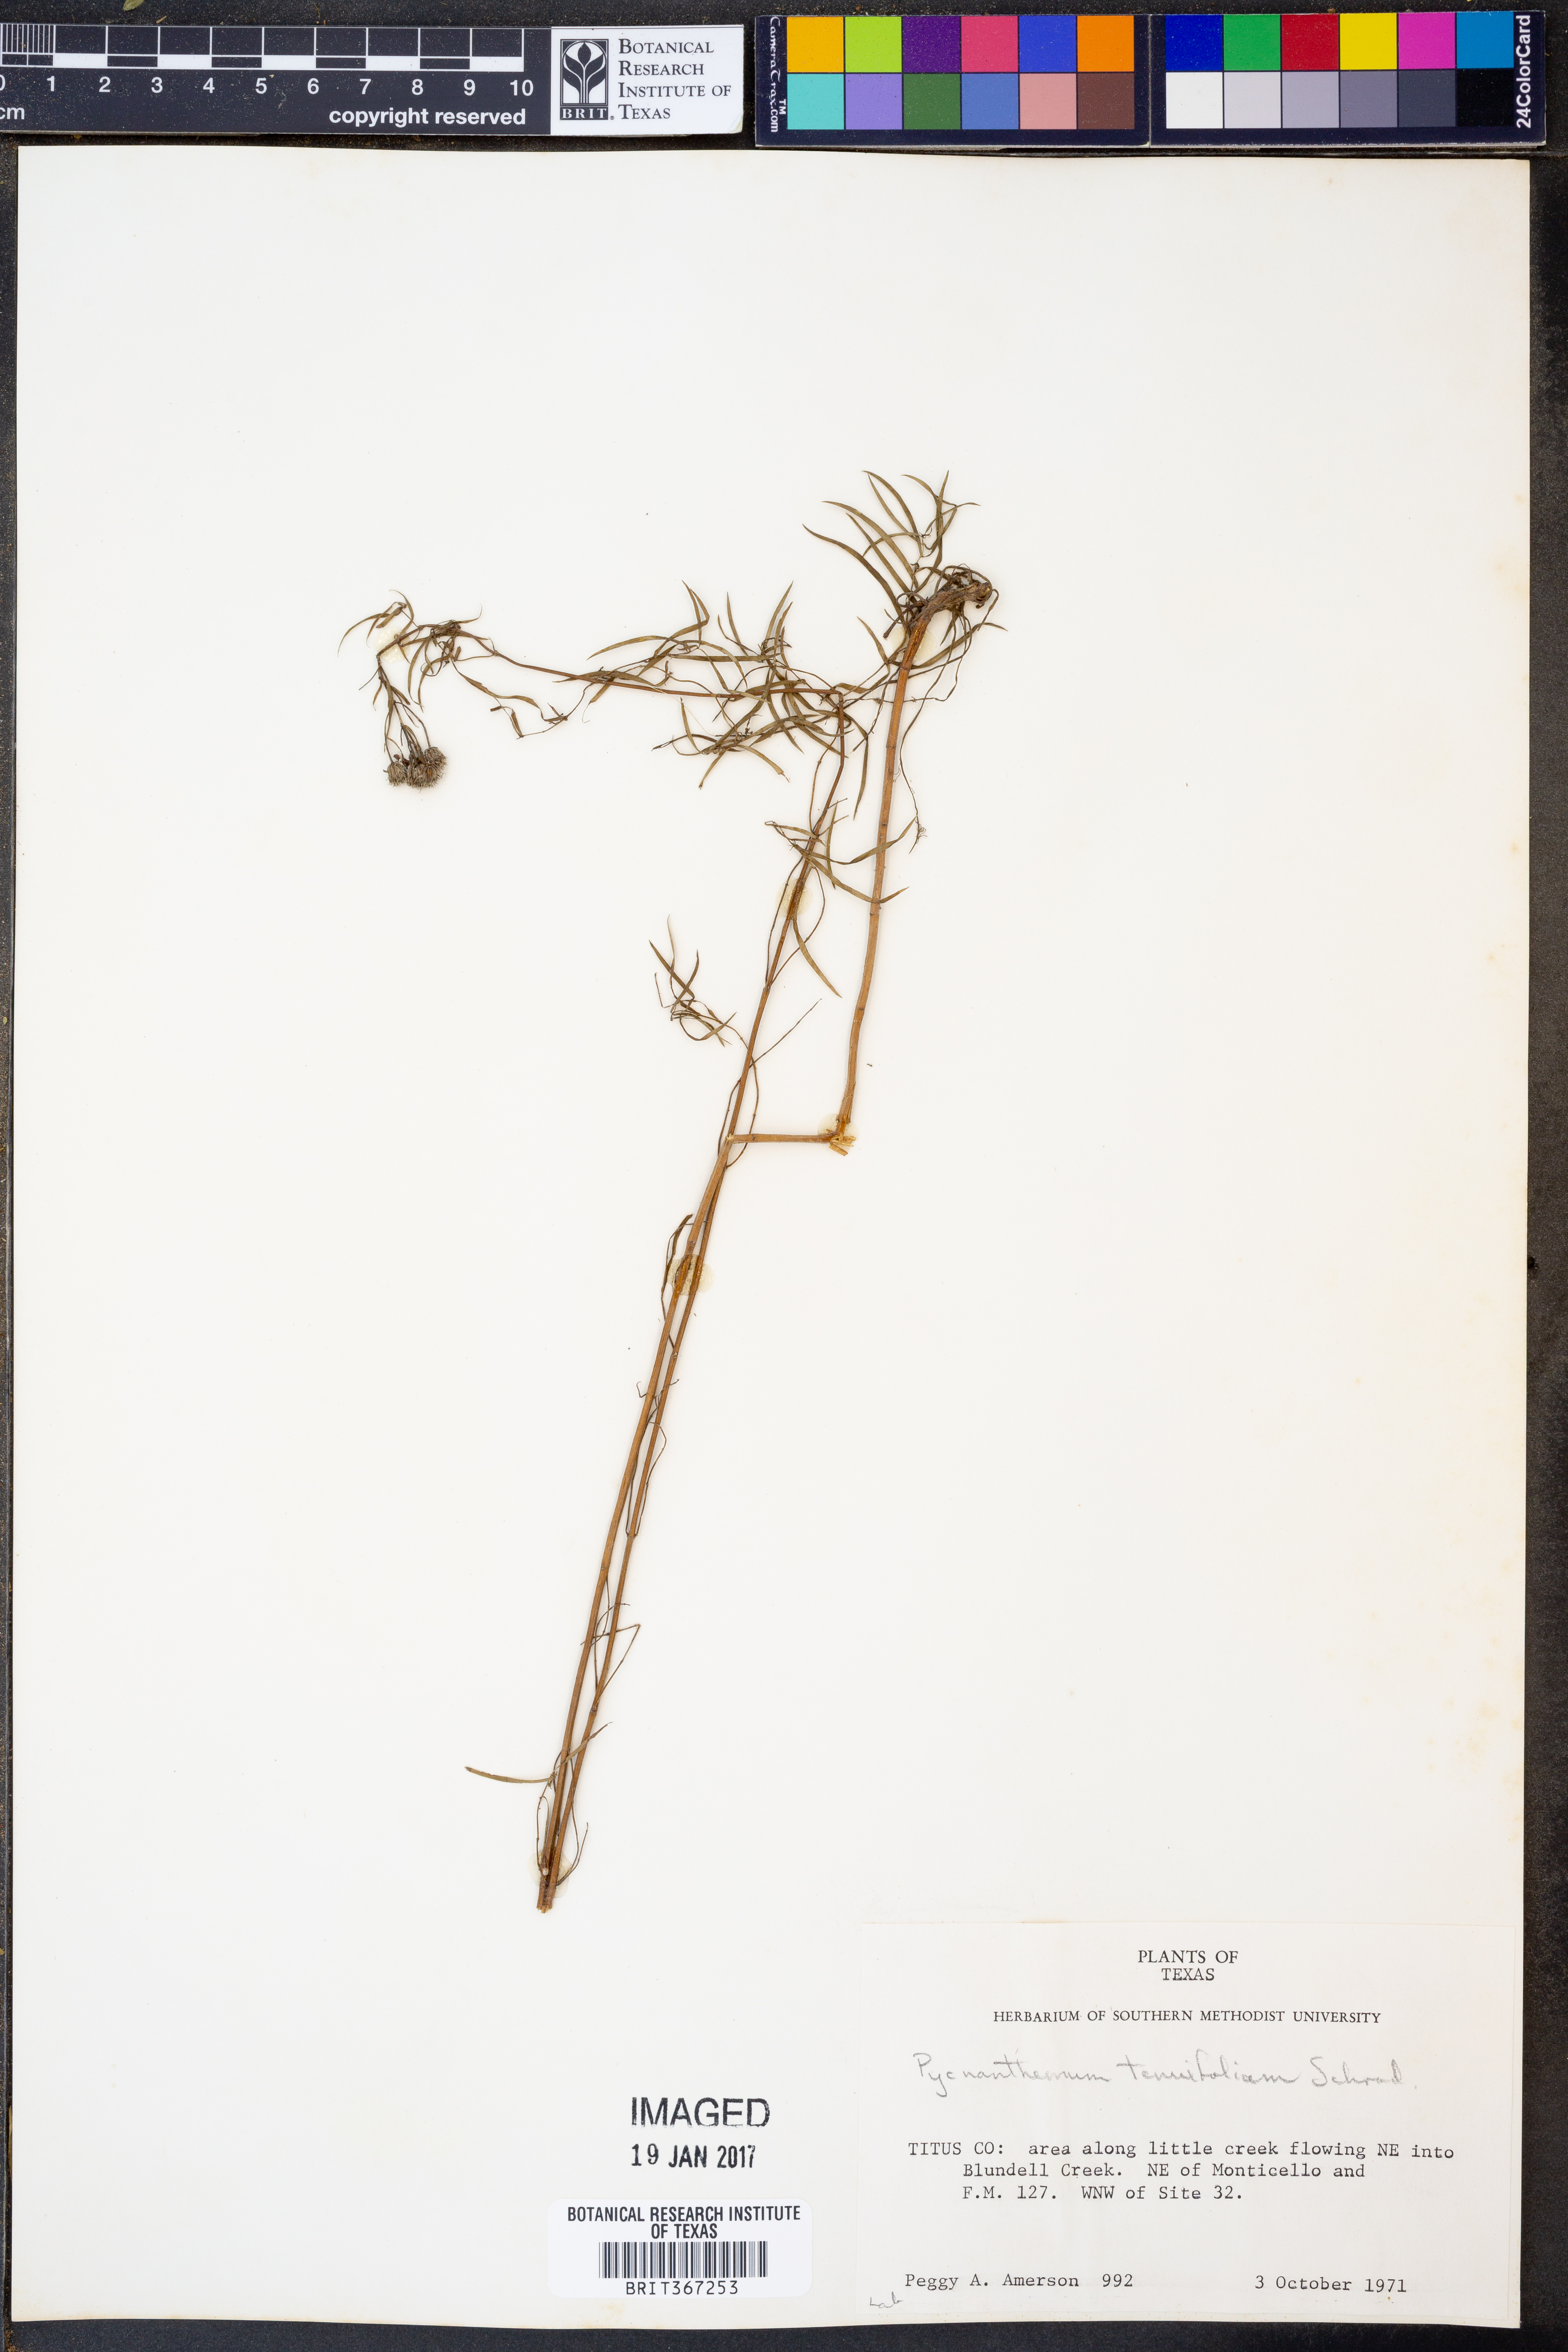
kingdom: Plantae
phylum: Tracheophyta
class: Magnoliopsida
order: Lamiales
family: Lamiaceae
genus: Pycnanthemum
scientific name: Pycnanthemum tenuifolium
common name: Narrow-leaf mountain-mint
